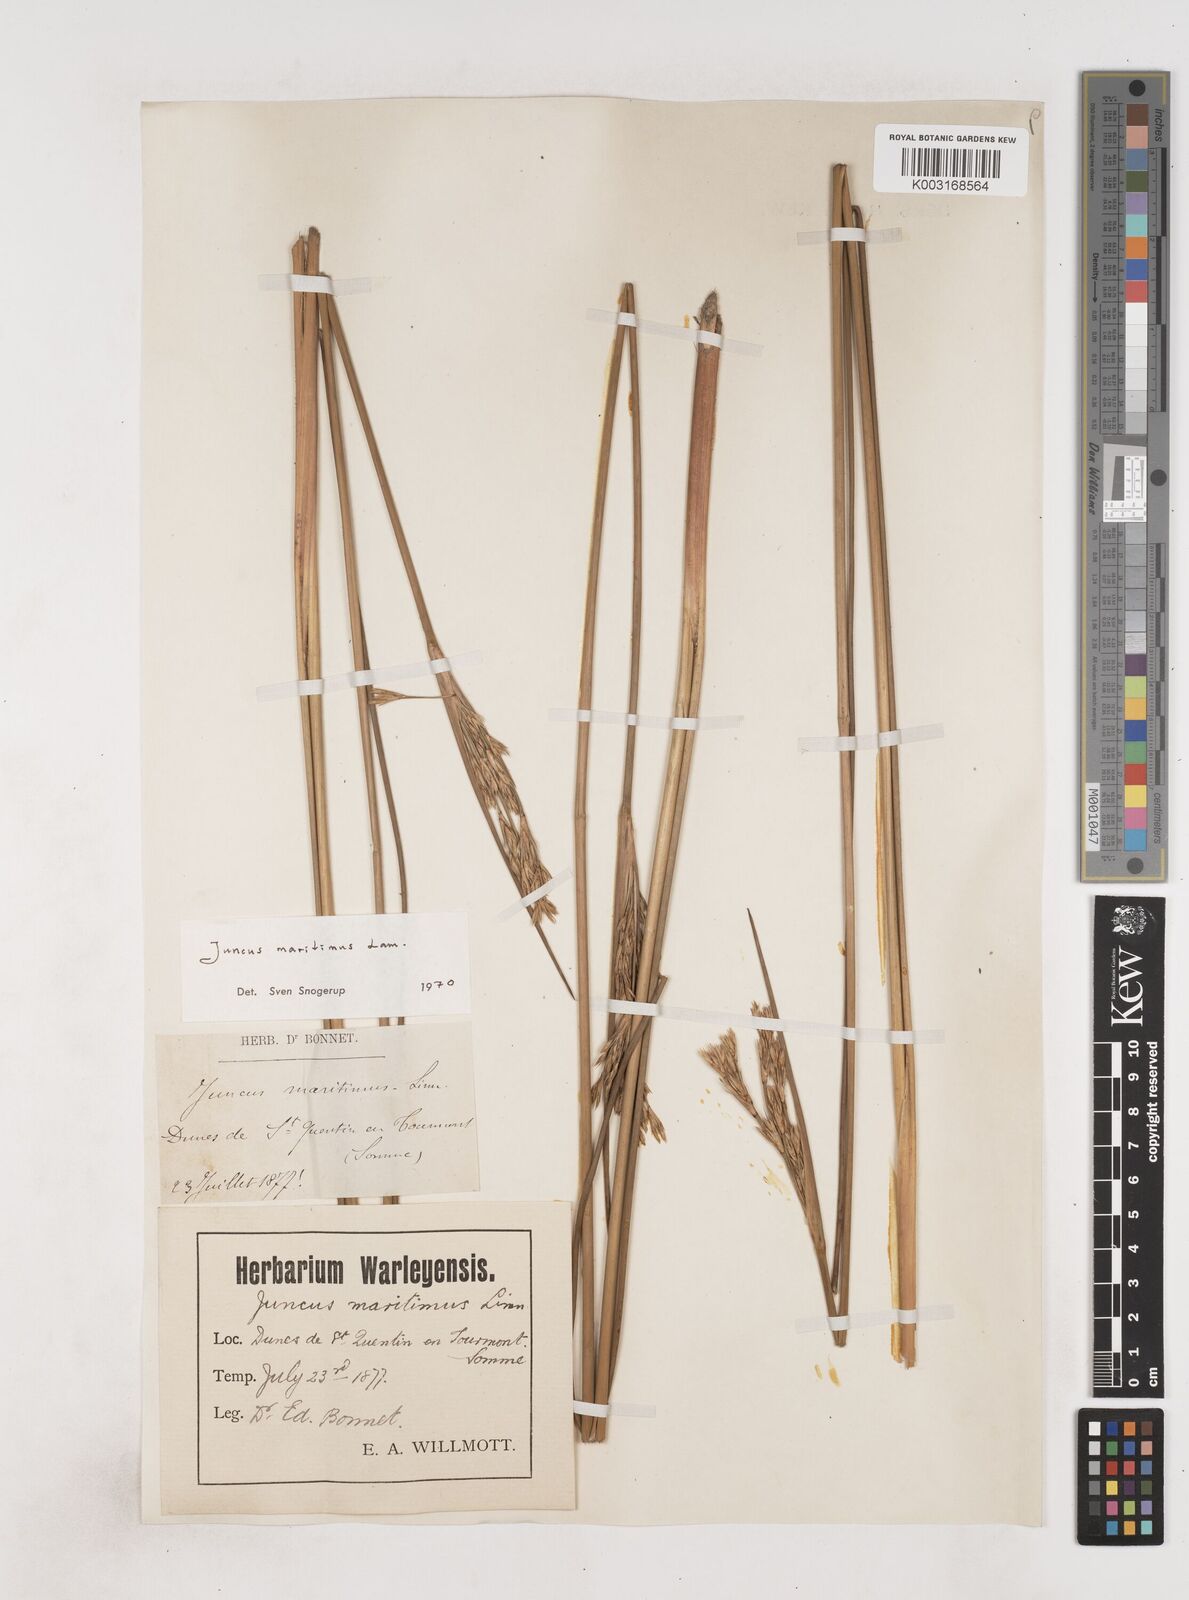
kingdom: Plantae
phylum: Tracheophyta
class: Liliopsida
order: Poales
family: Juncaceae
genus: Juncus
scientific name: Juncus maritimus
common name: Sea rush
